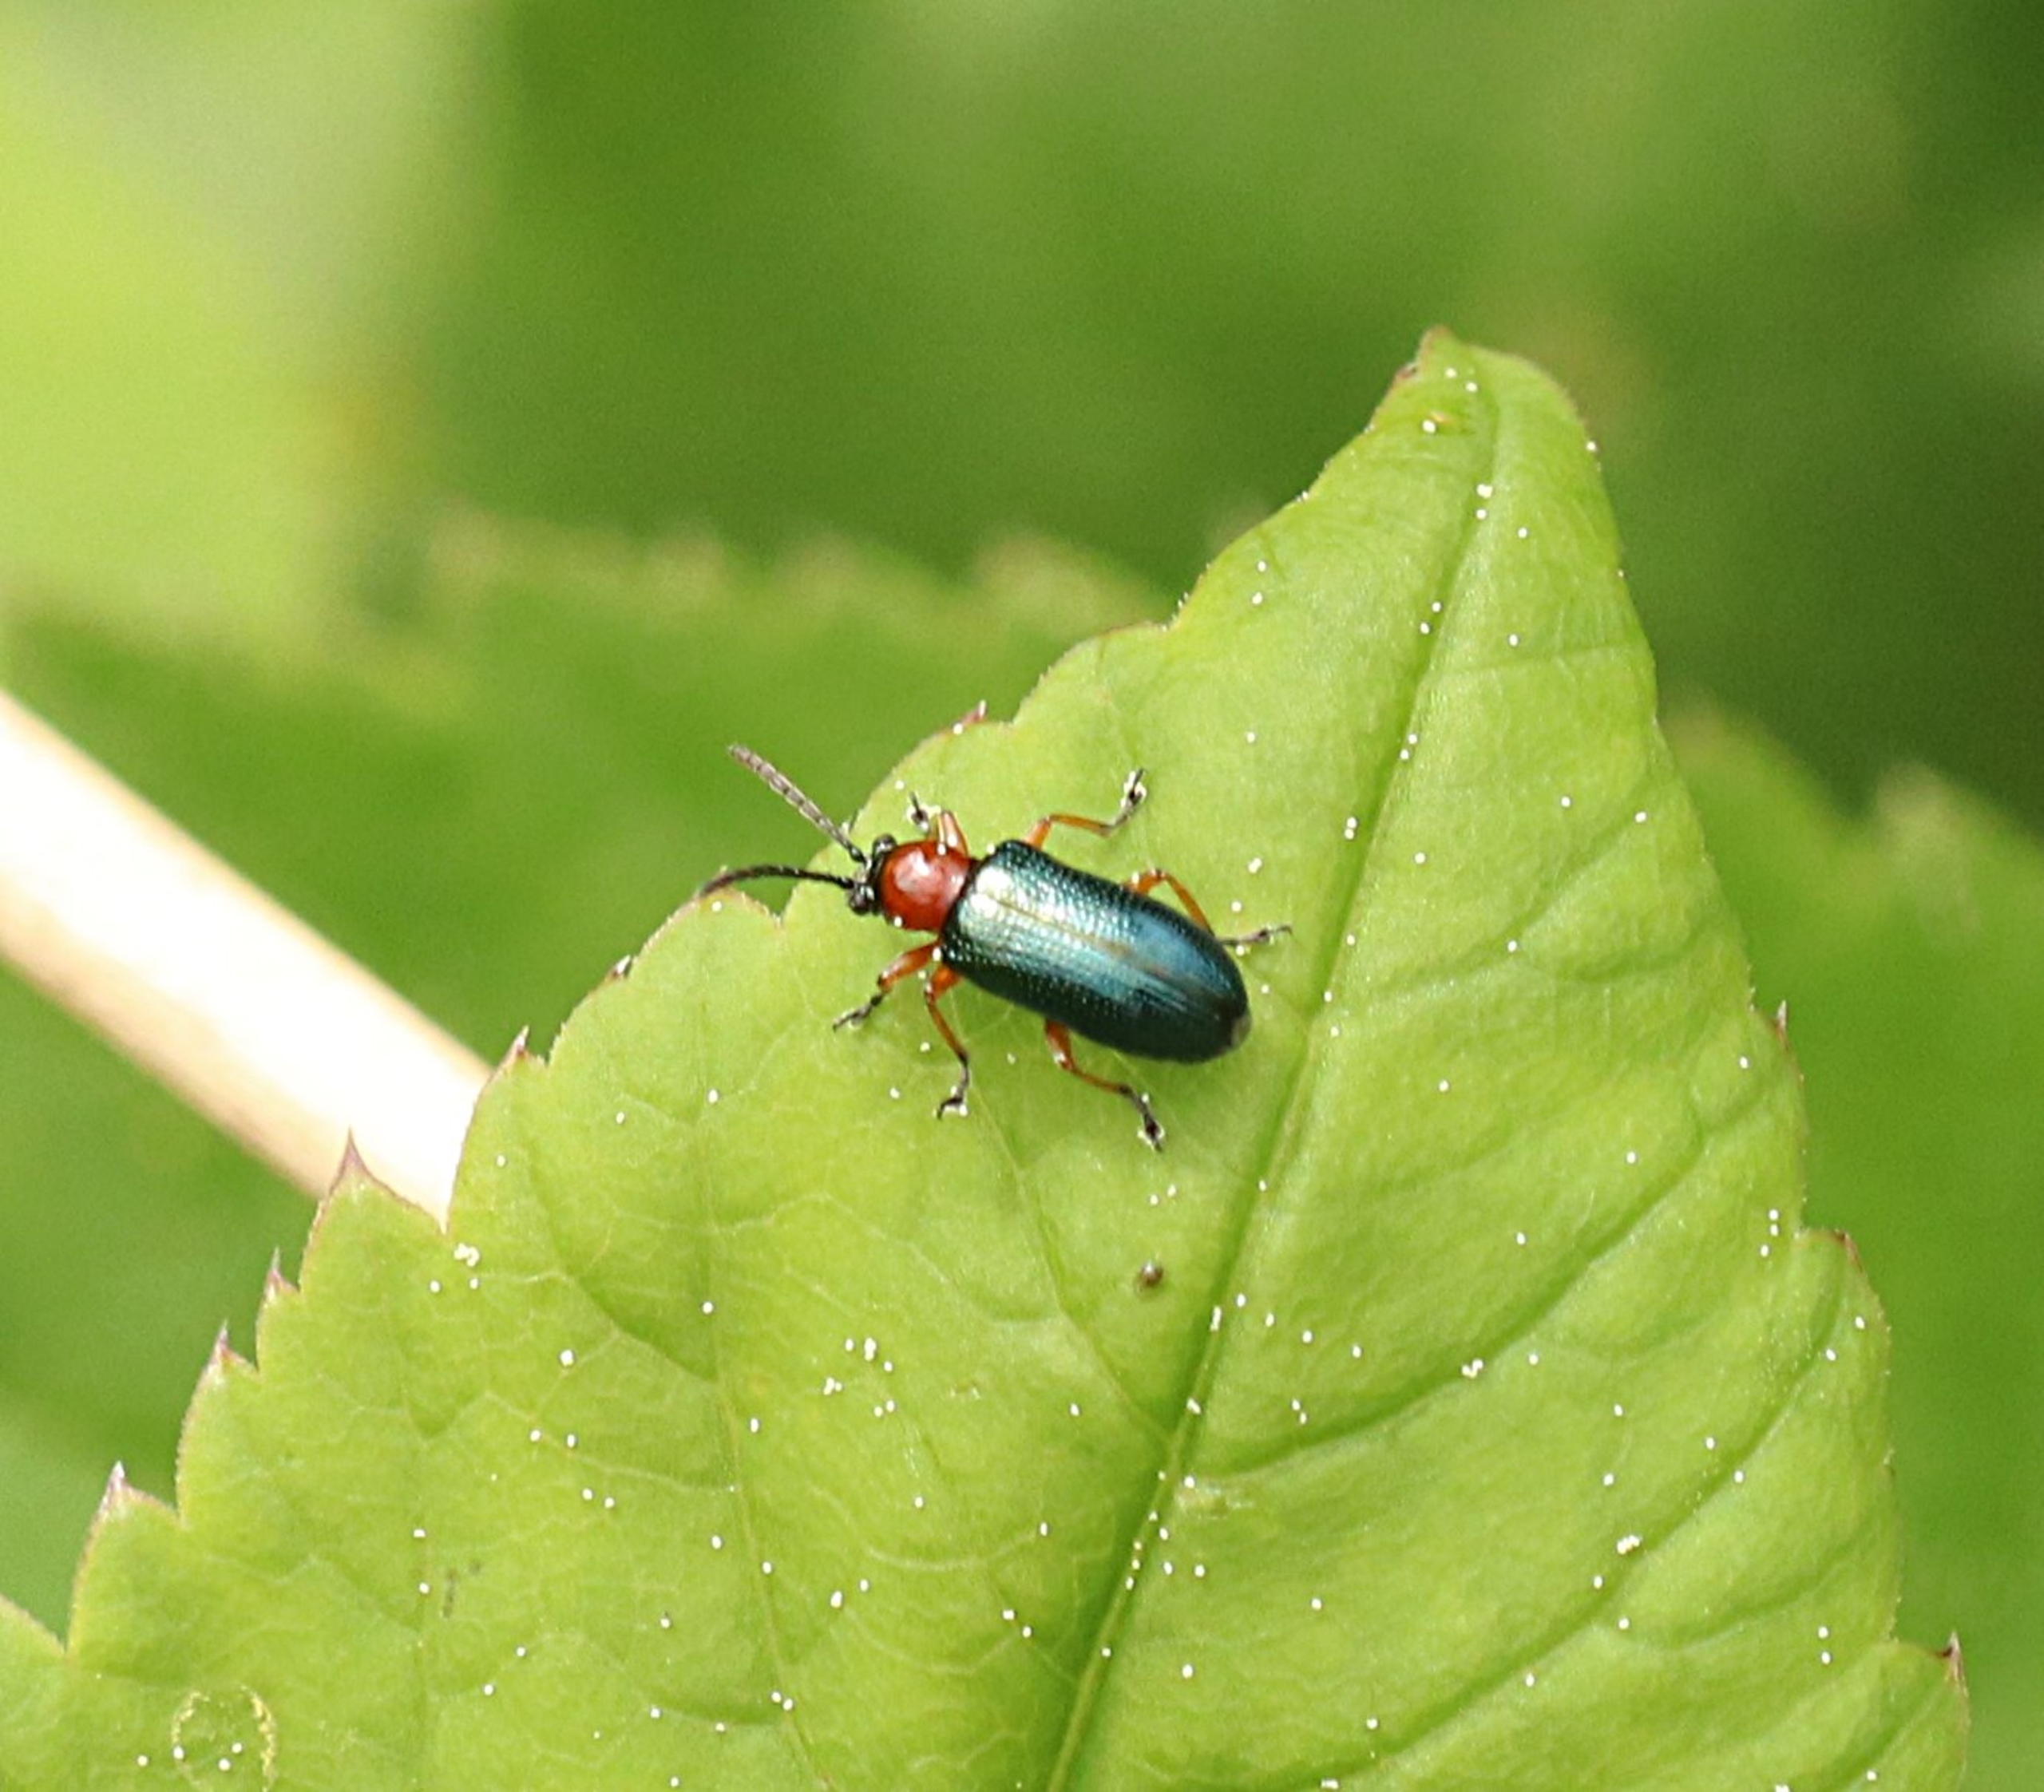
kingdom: Animalia
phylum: Arthropoda
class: Insecta
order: Coleoptera
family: Chrysomelidae
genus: Oulema
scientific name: Oulema
